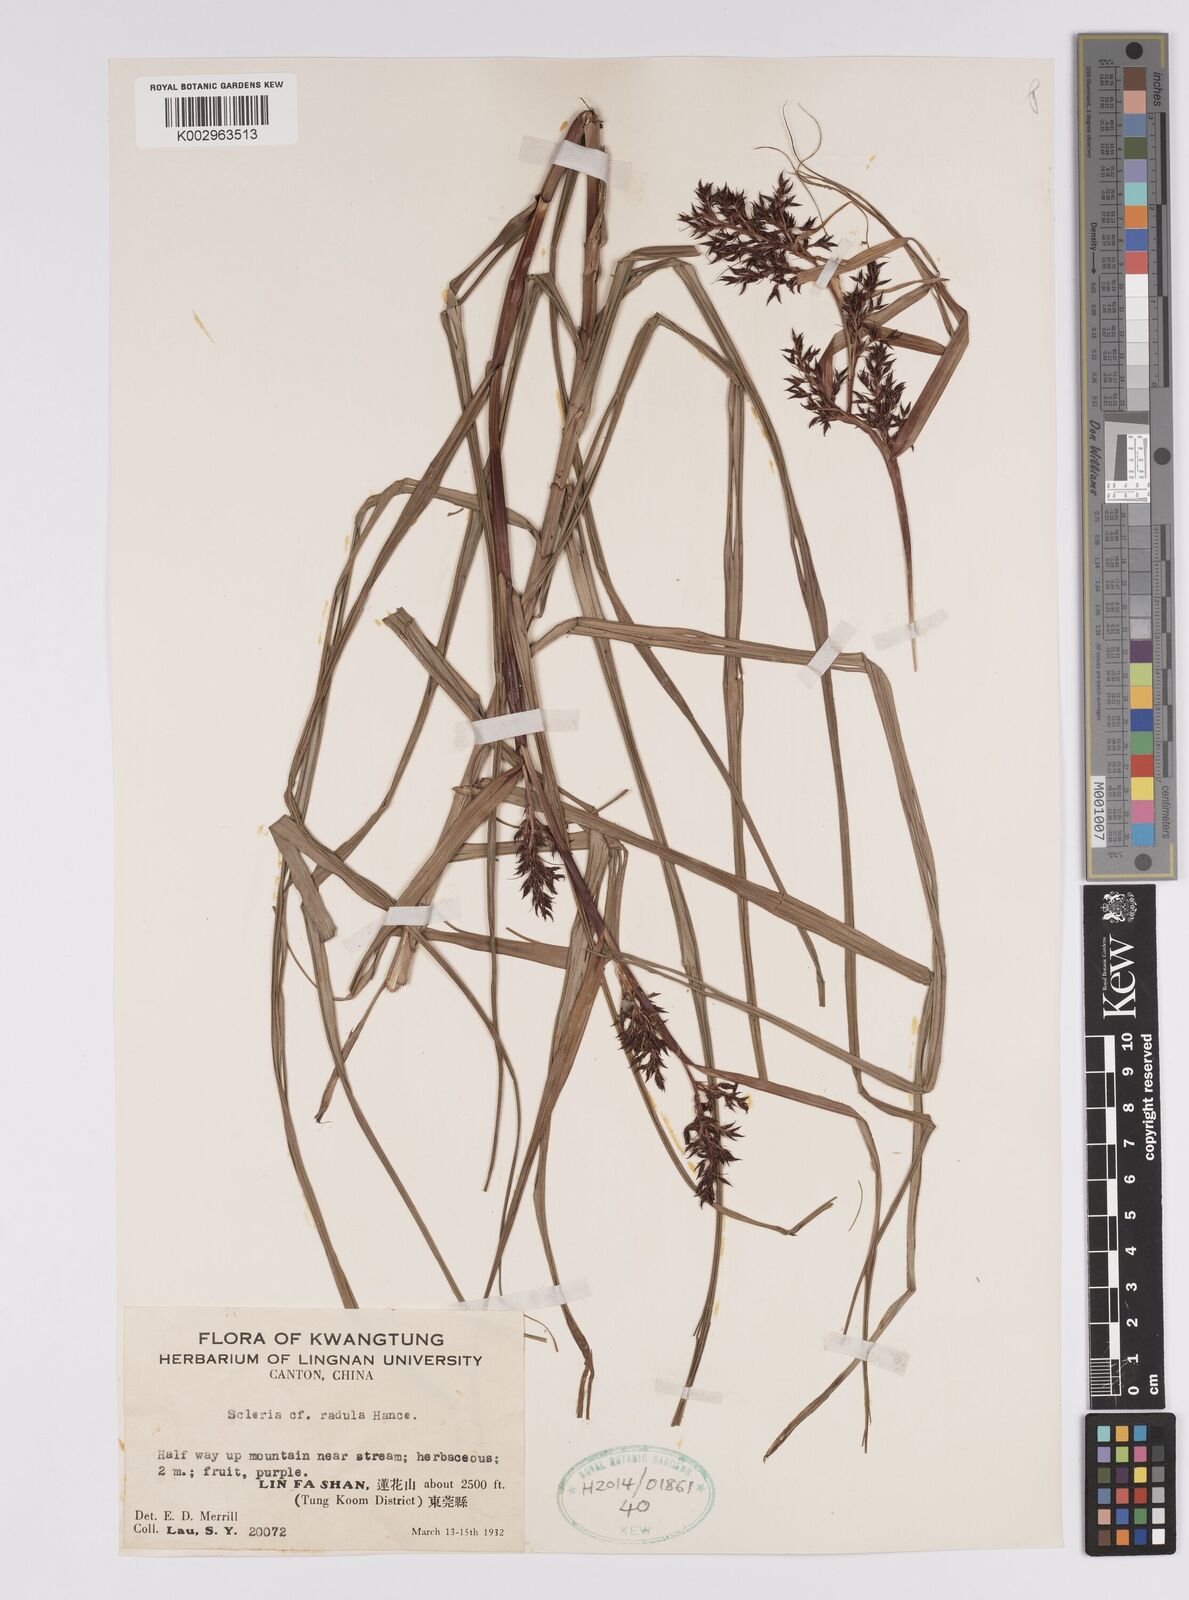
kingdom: Plantae
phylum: Tracheophyta
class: Liliopsida
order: Poales
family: Cyperaceae
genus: Scleria
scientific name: Scleria radula
